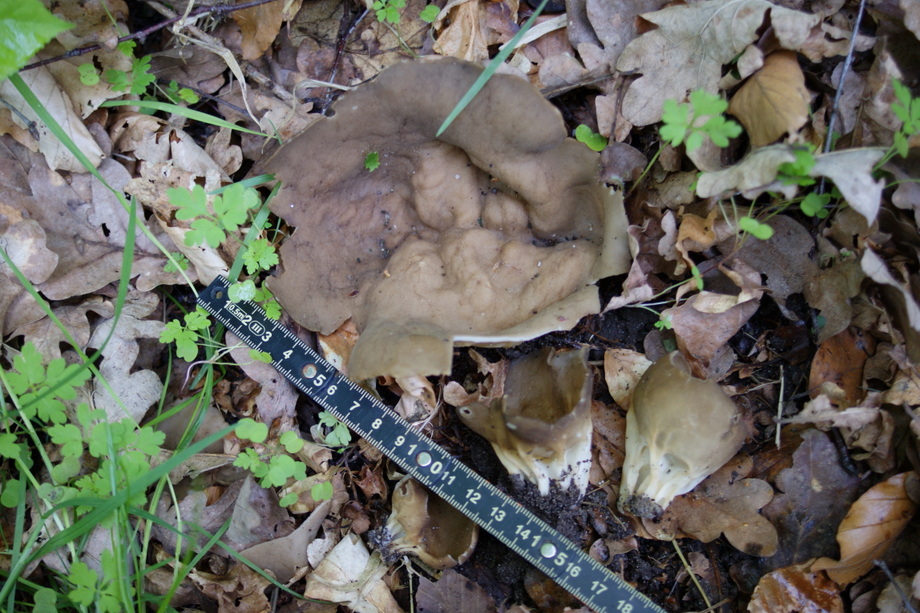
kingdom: Fungi
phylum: Ascomycota
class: Pezizomycetes
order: Pezizales
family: Helvellaceae
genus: Helvella
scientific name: Helvella acetabulum
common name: pokal-foldhat
